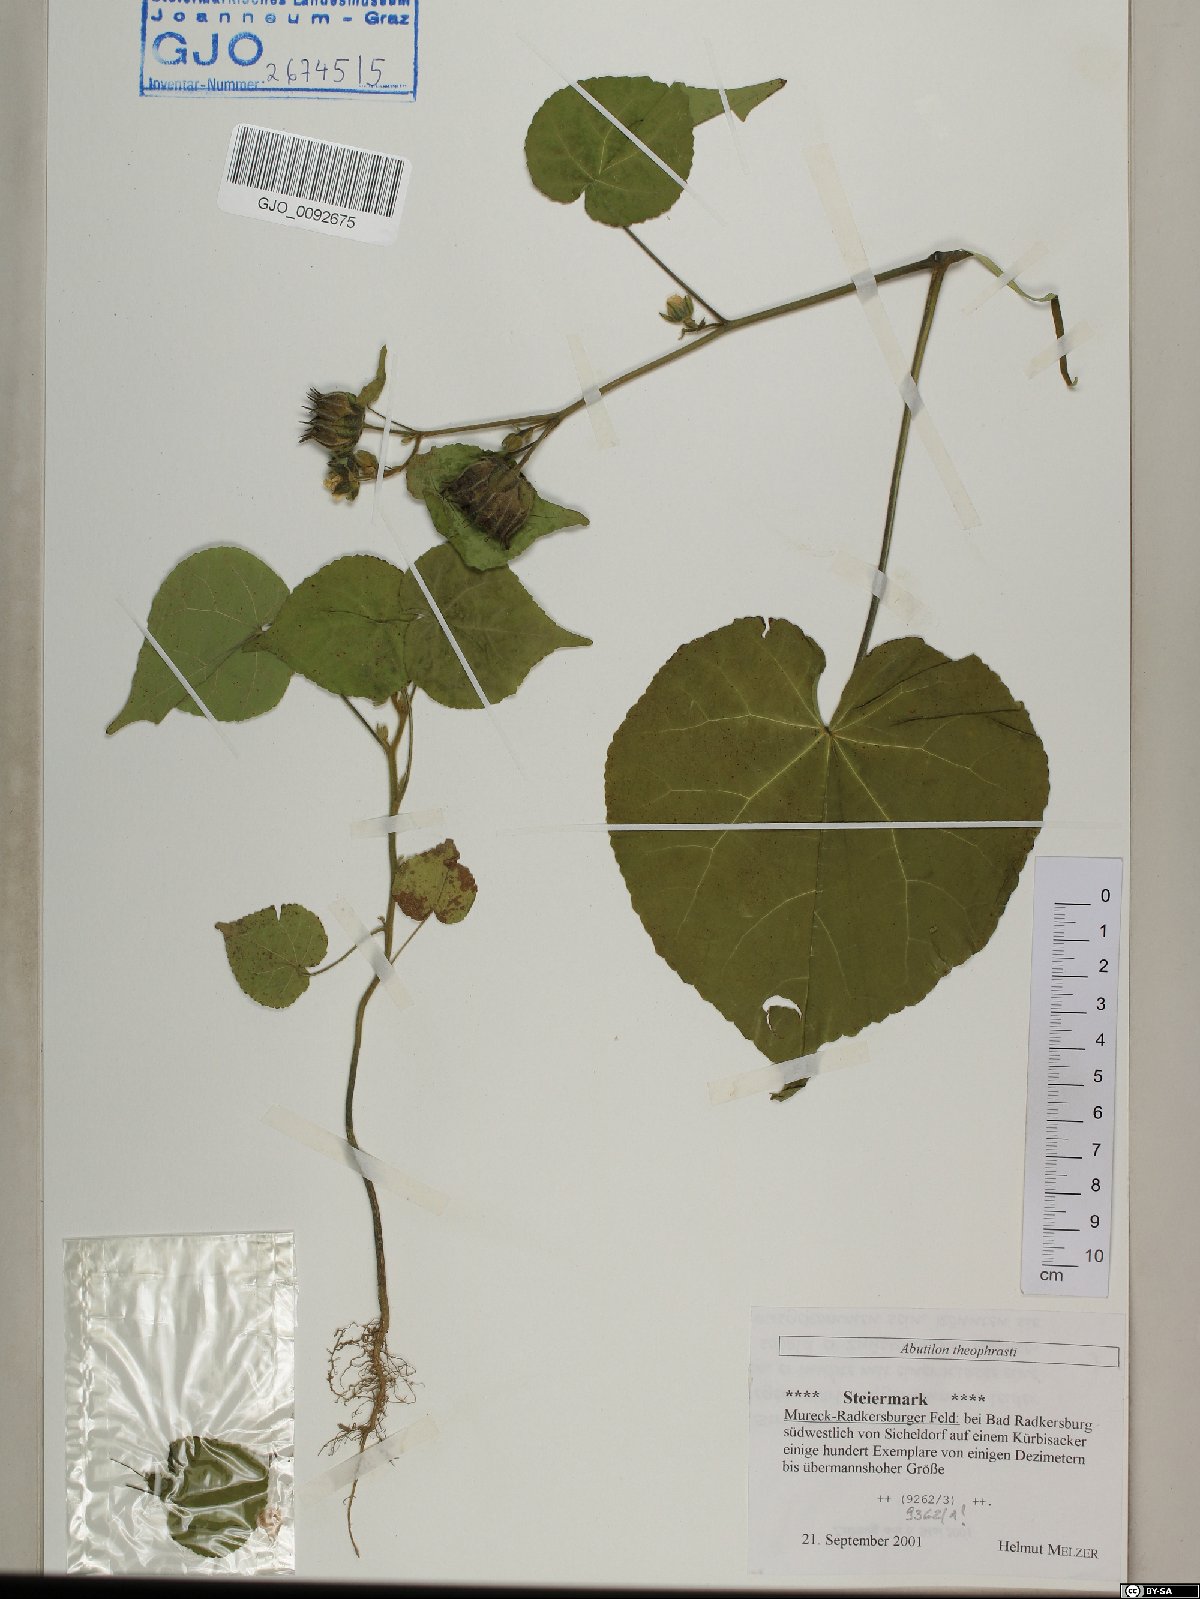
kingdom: Plantae
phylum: Tracheophyta
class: Magnoliopsida
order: Malvales
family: Malvaceae
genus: Abutilon
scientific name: Abutilon theophrasti
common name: Velvetleaf
